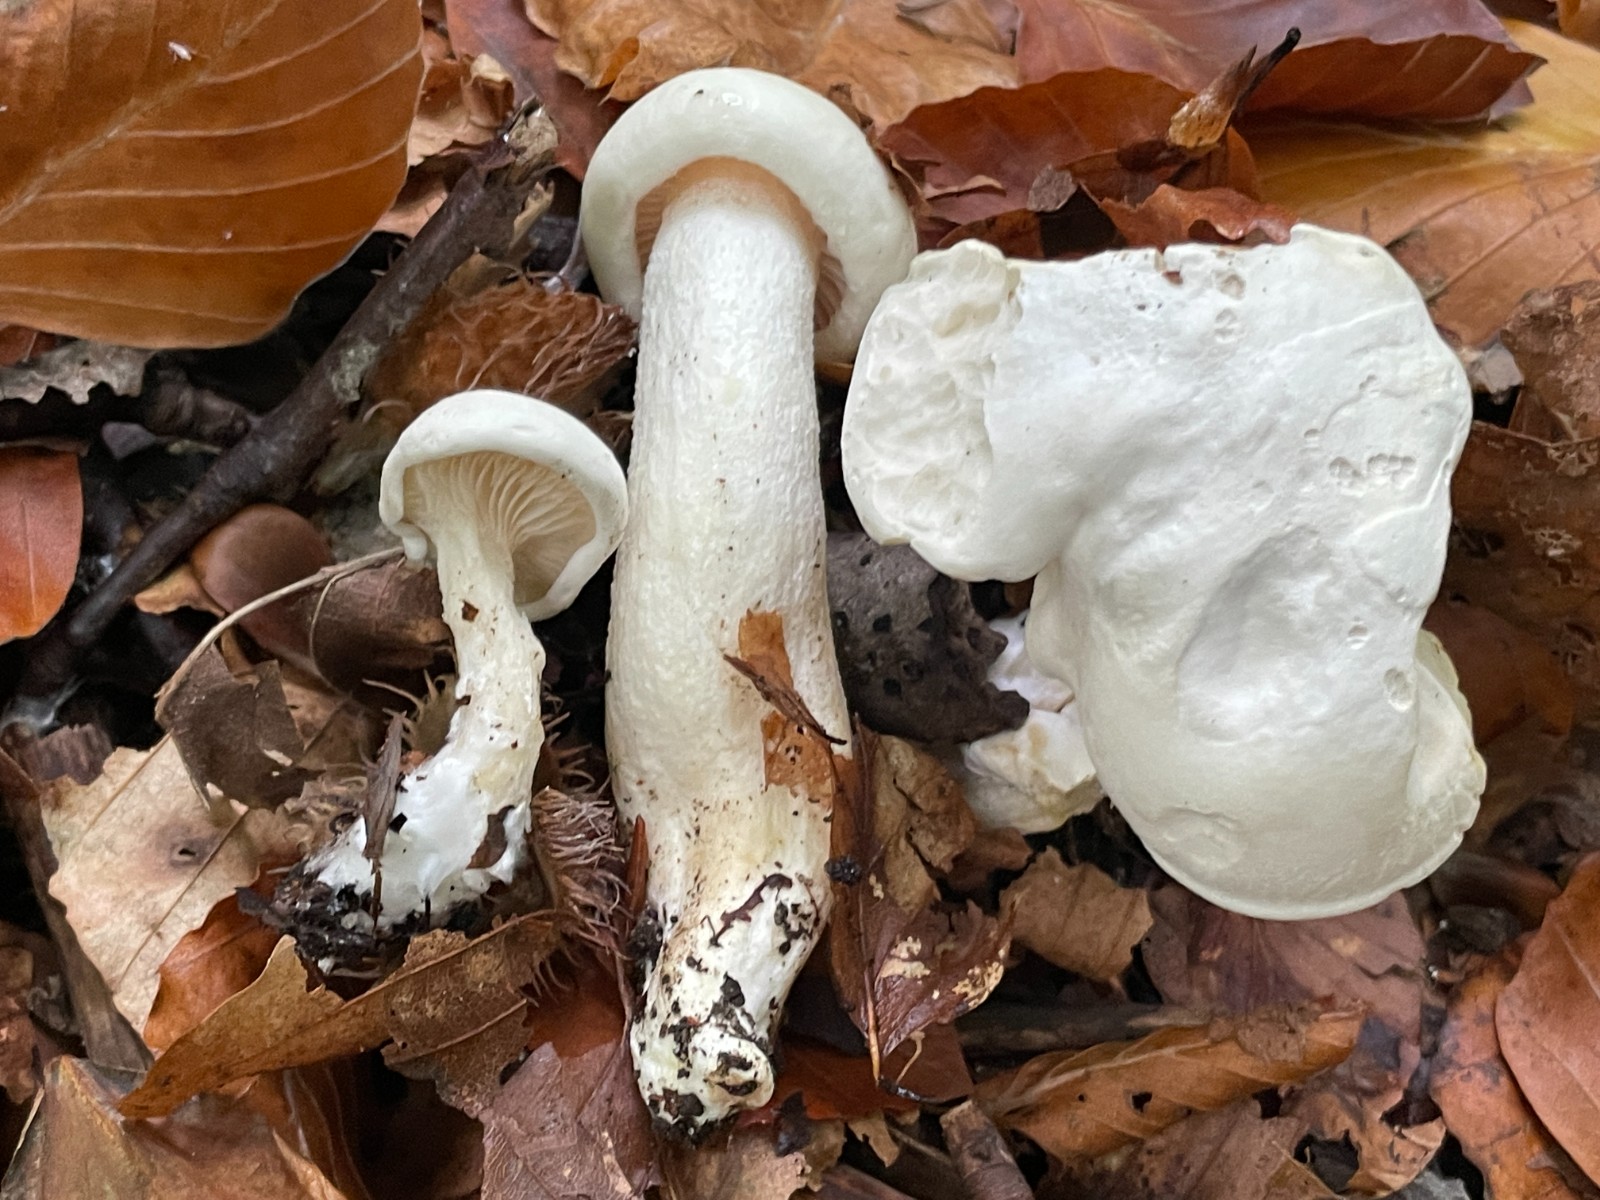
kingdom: Fungi
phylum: Basidiomycota
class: Agaricomycetes
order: Agaricales
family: Hygrophoraceae
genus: Hygrophorus
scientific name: Hygrophorus eburneus
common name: elfenbens-sneglehat
